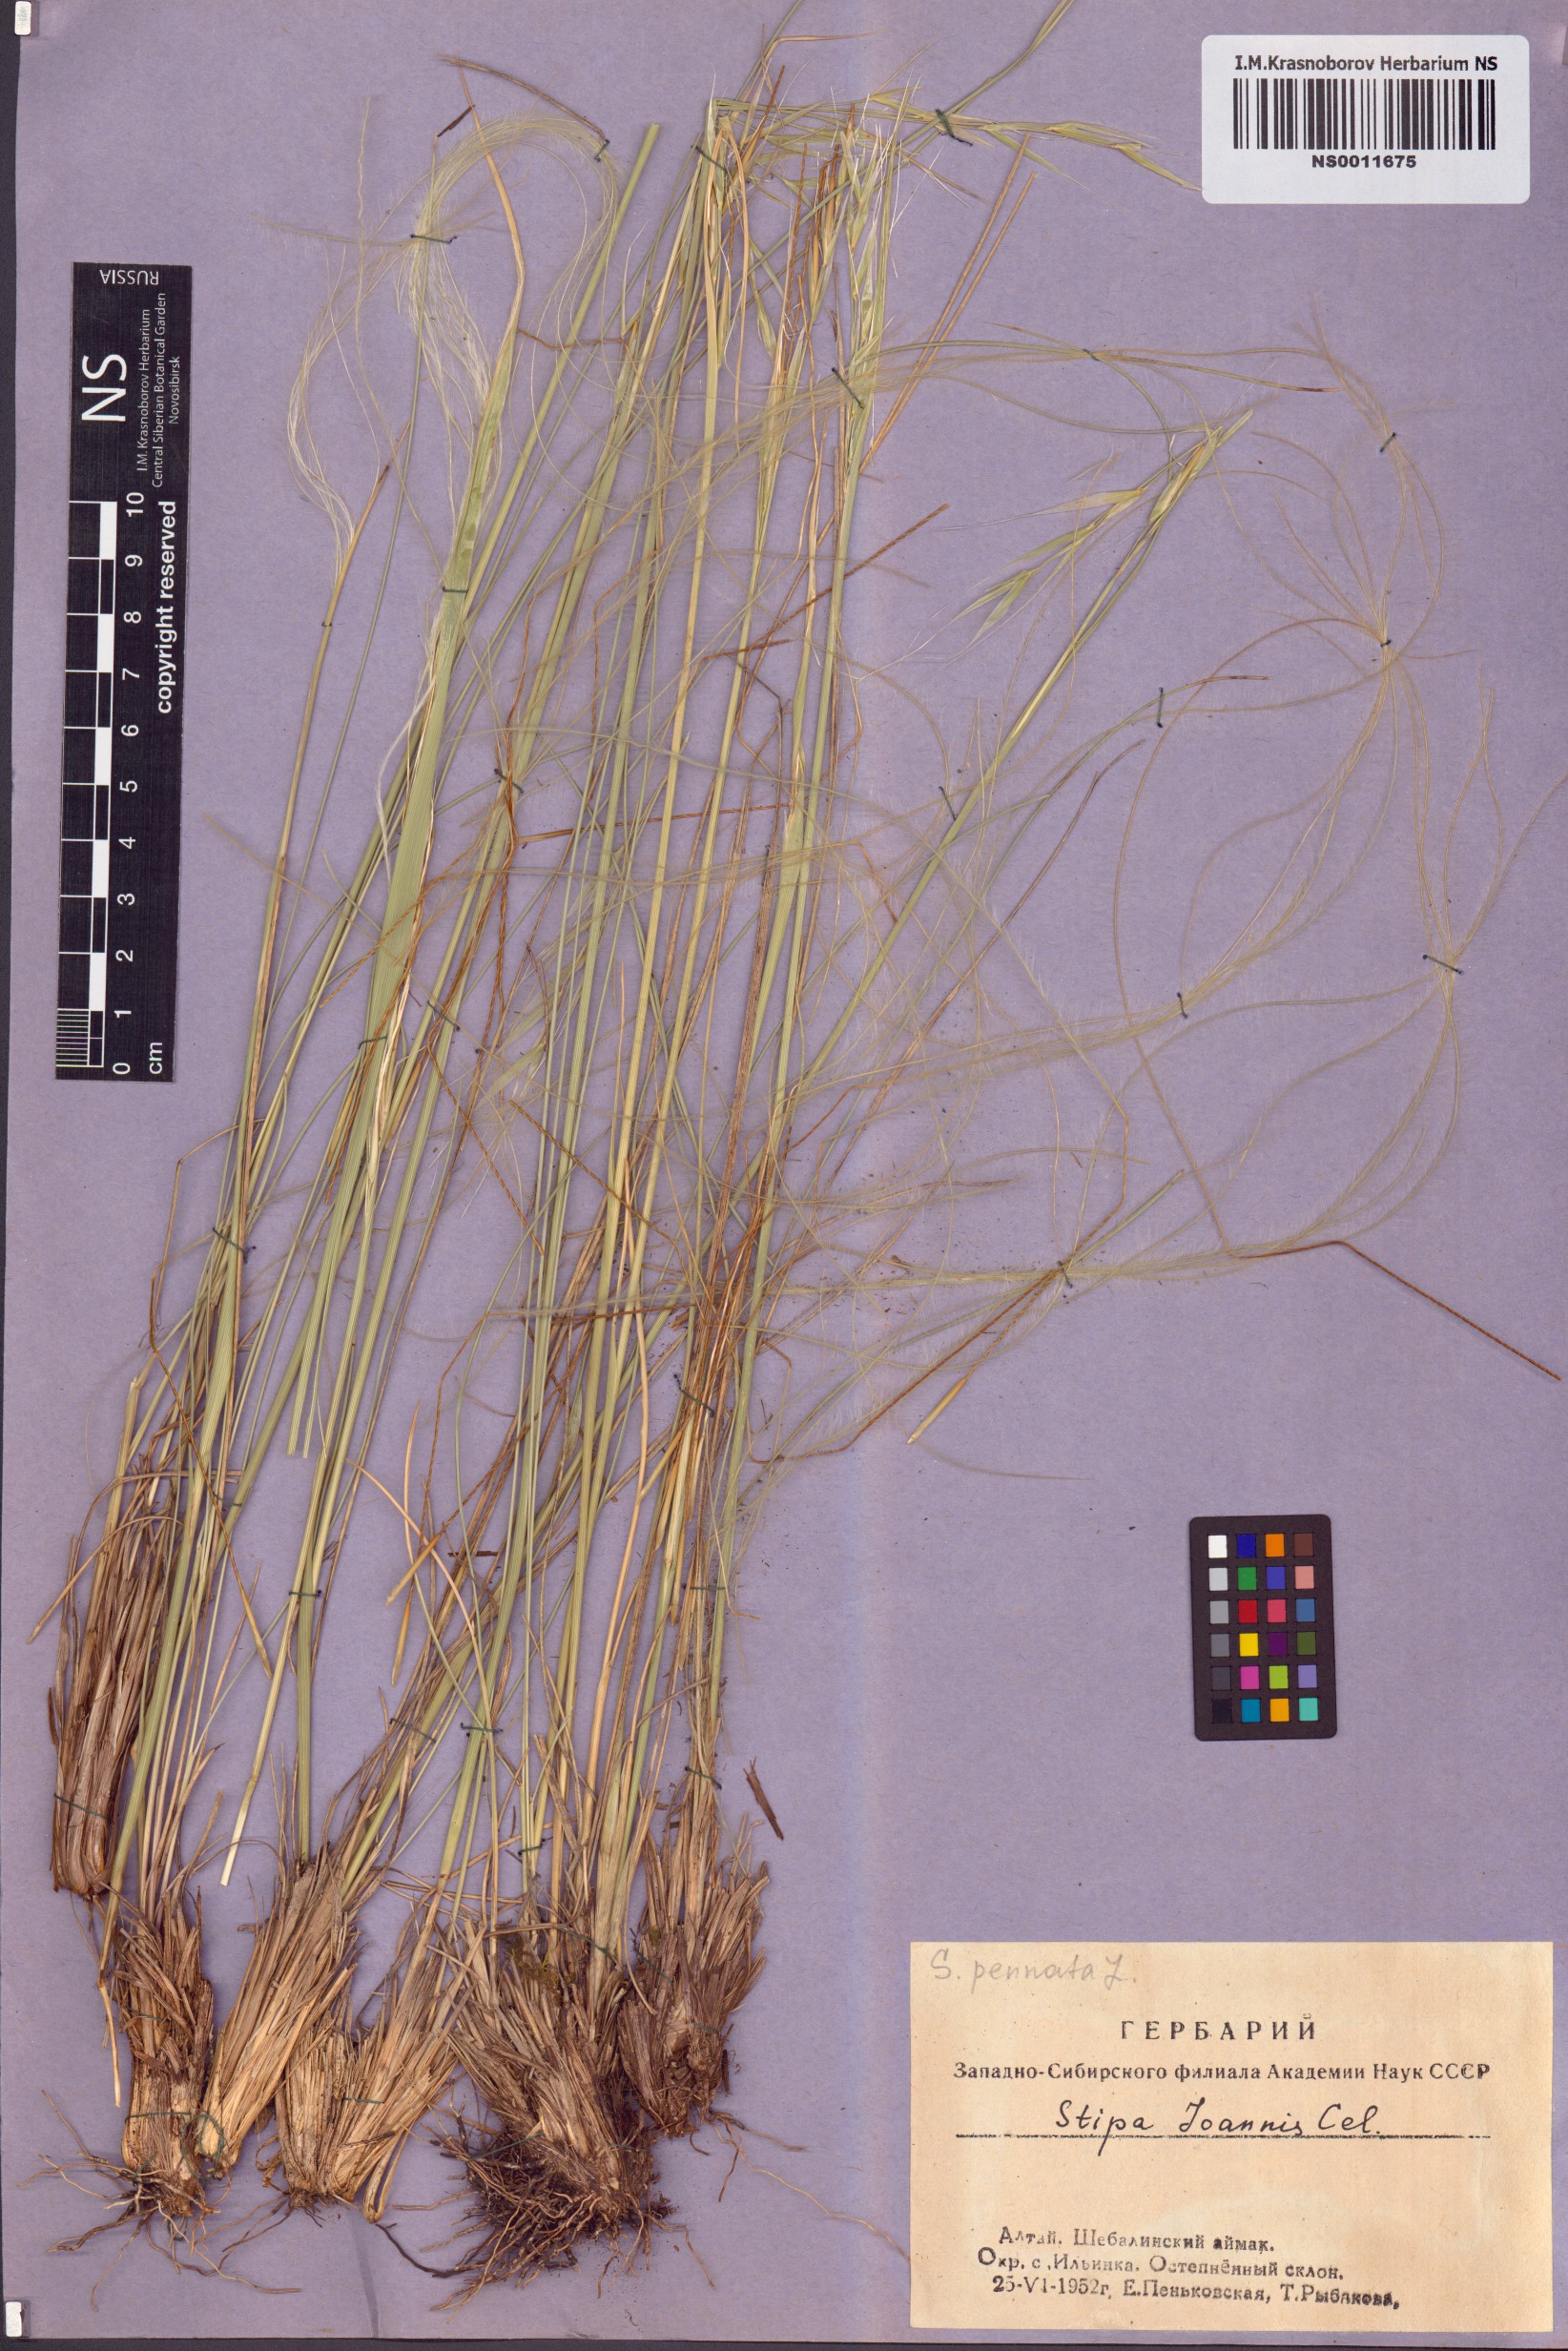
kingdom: Plantae
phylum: Tracheophyta
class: Liliopsida
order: Poales
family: Poaceae
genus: Stipa
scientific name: Stipa pennata
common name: European feather grass
